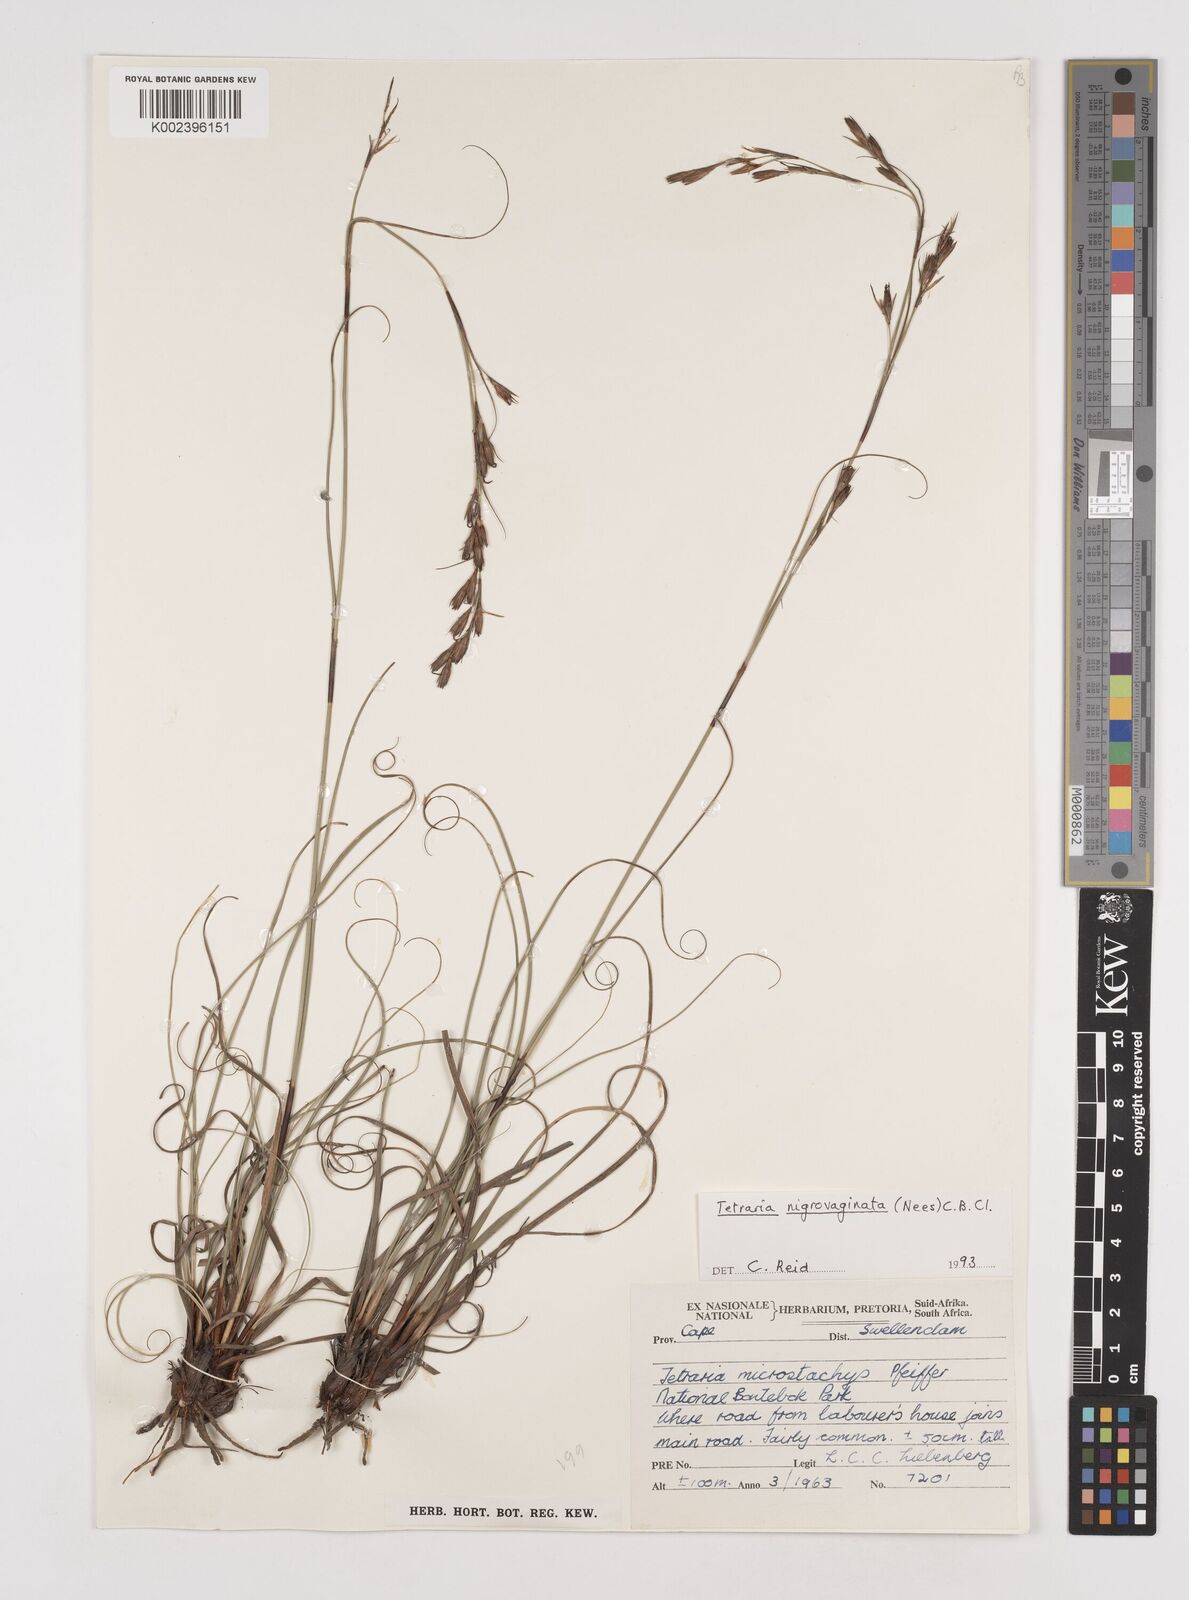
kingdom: Plantae
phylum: Tracheophyta
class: Liliopsida
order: Poales
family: Cyperaceae
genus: Tetraria
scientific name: Tetraria nigrovaginata
